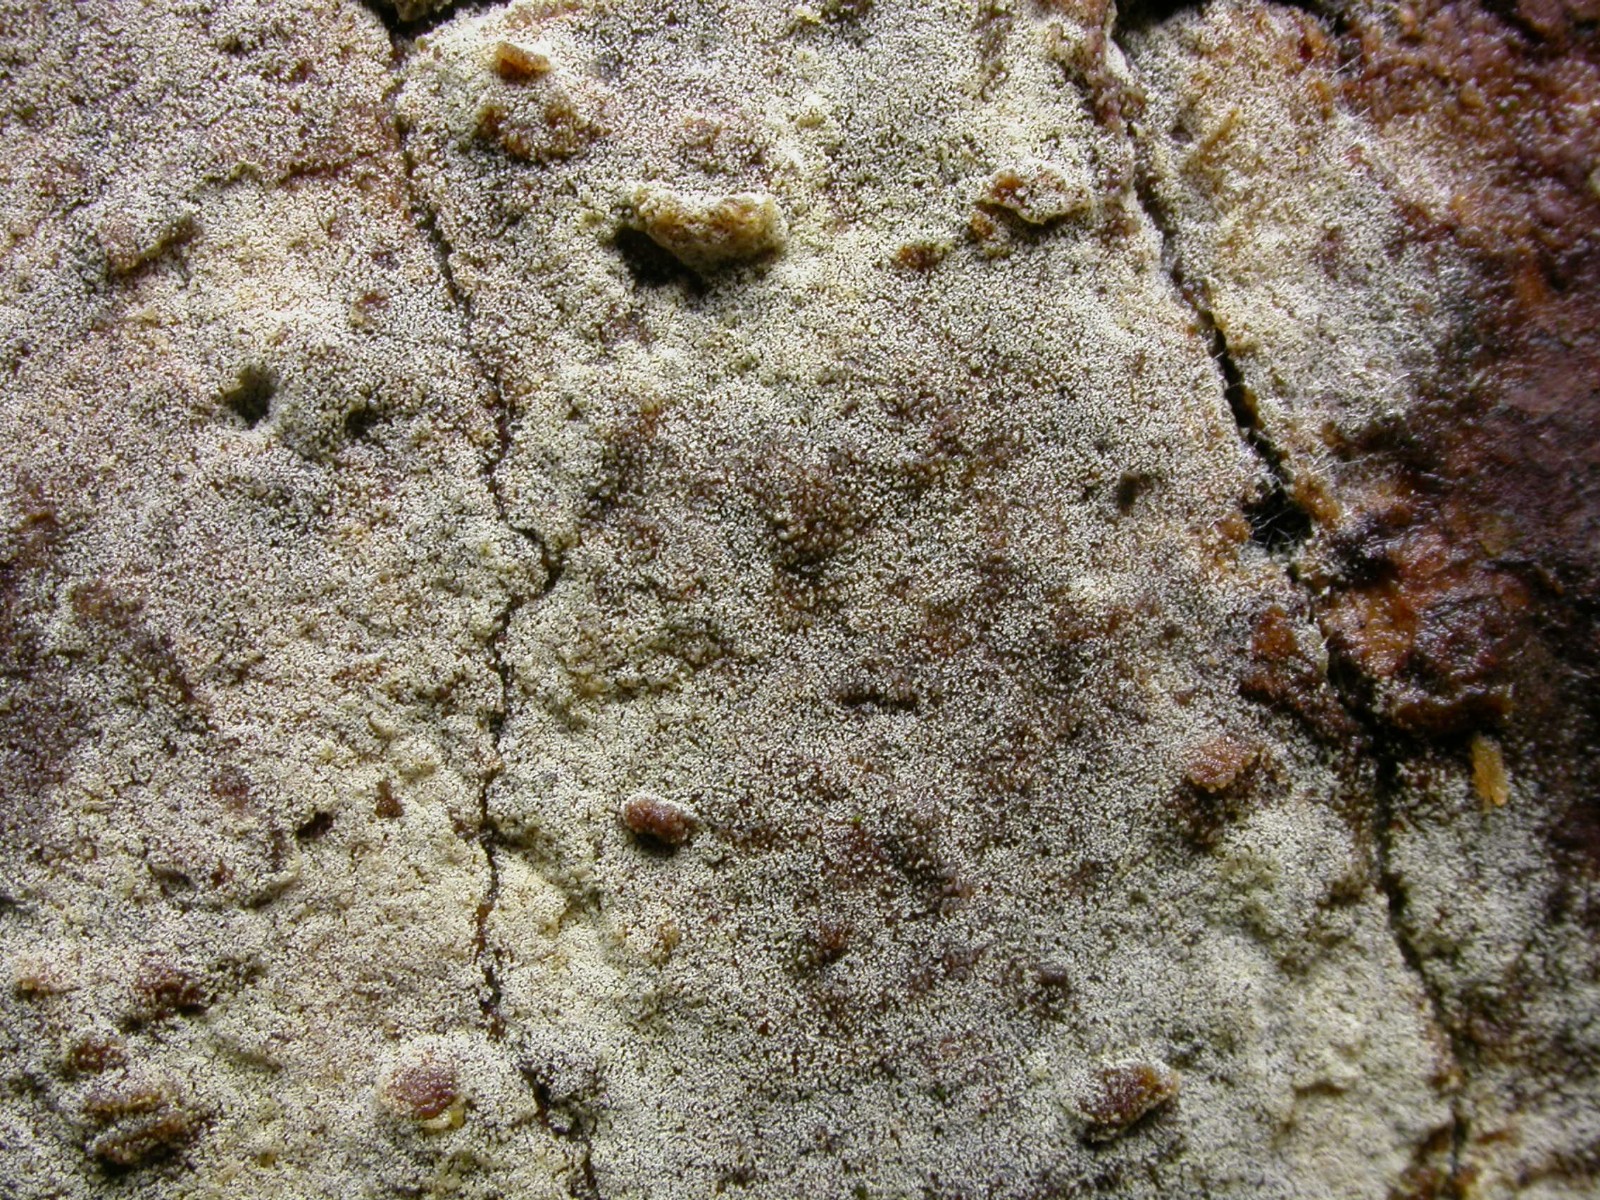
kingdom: Fungi
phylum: Basidiomycota
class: Agaricomycetes
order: Cantharellales
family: Botryobasidiaceae
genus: Botryobasidium
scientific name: Botryobasidium capitatum
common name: kalkhvid spindhinde
